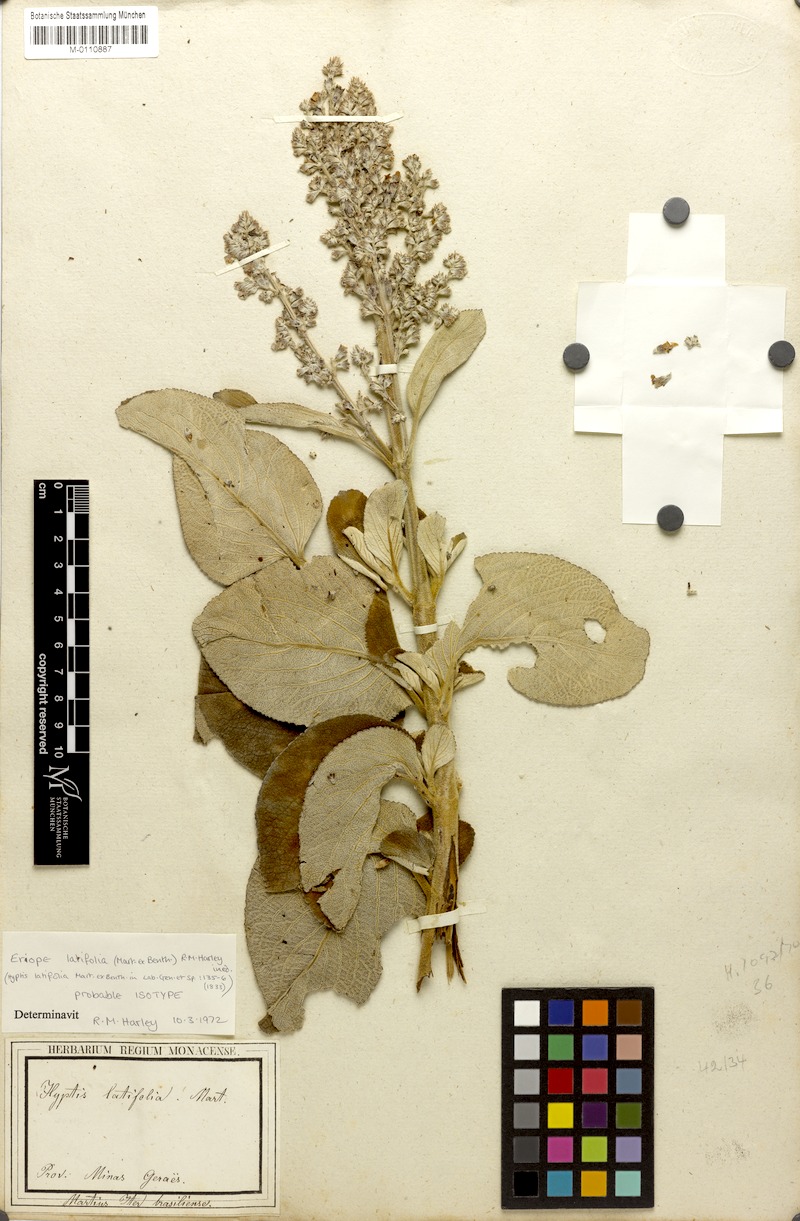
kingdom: Plantae
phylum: Tracheophyta
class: Magnoliopsida
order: Lamiales
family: Lamiaceae
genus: Eriope
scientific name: Eriope latifolia
